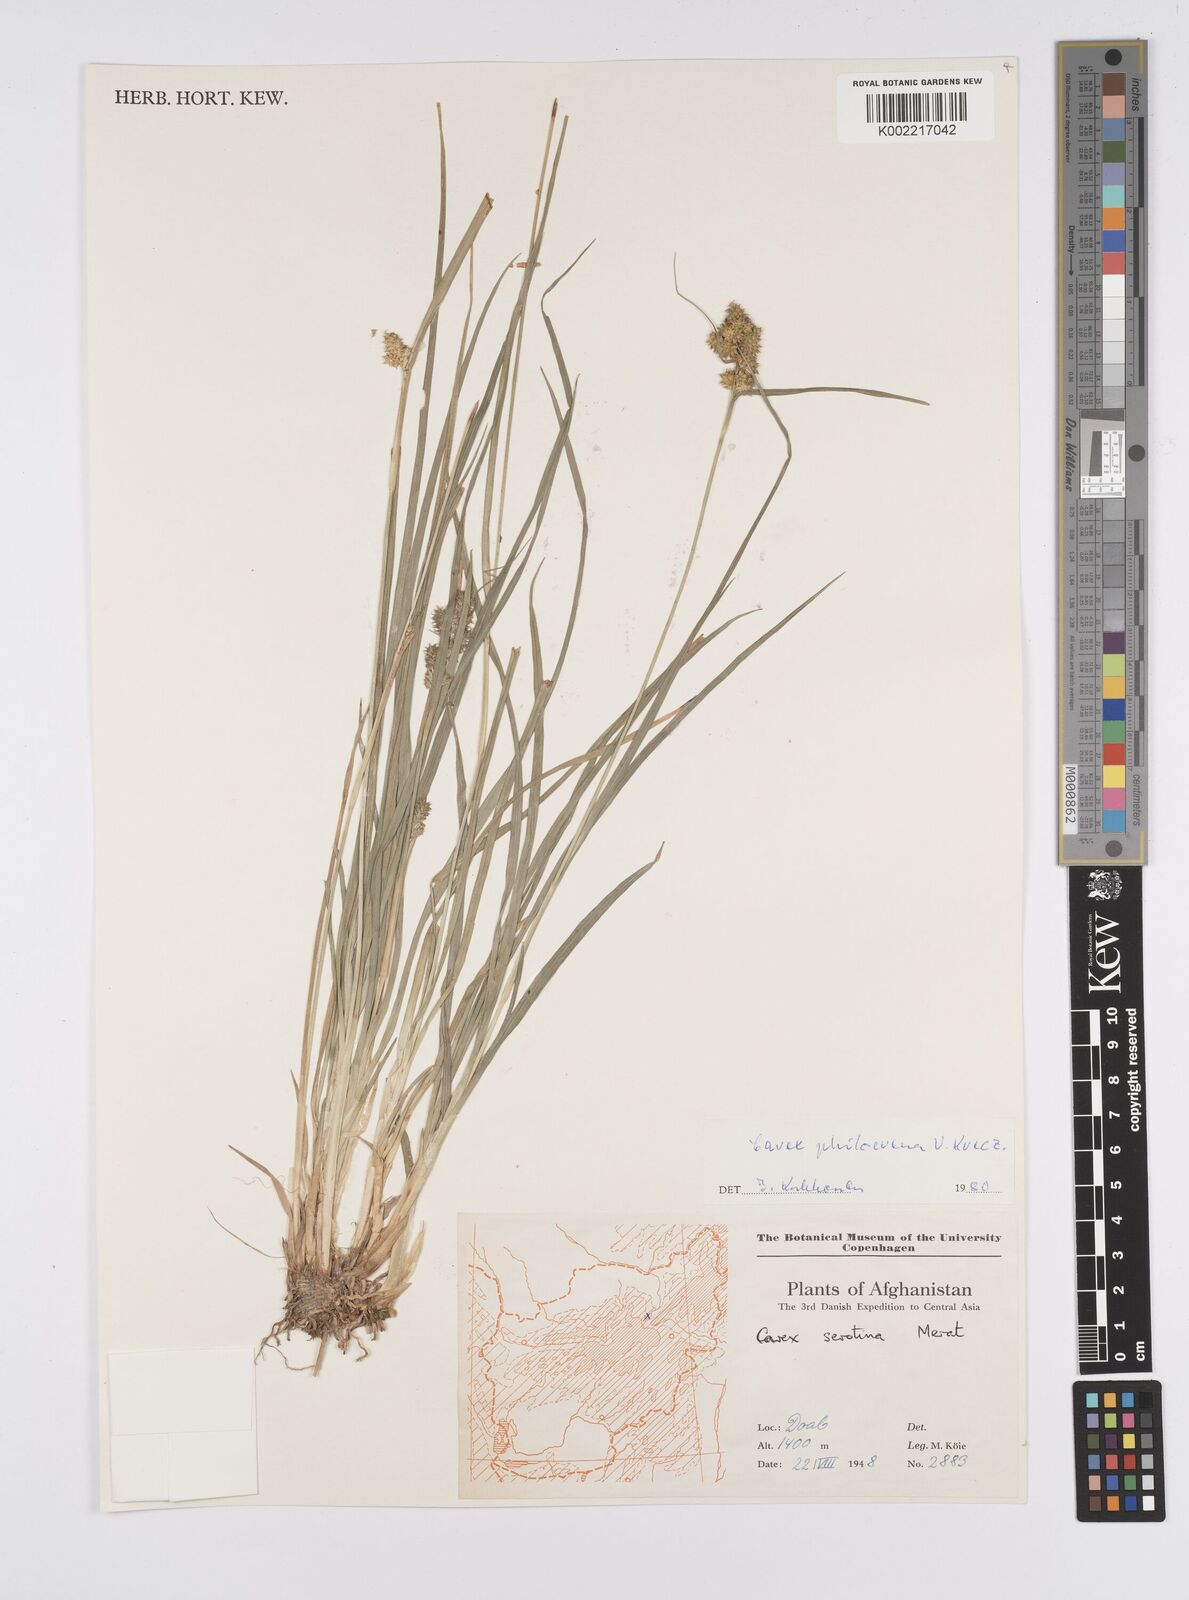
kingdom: Plantae
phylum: Tracheophyta
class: Liliopsida
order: Poales
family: Cyperaceae
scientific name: Cyperaceae
